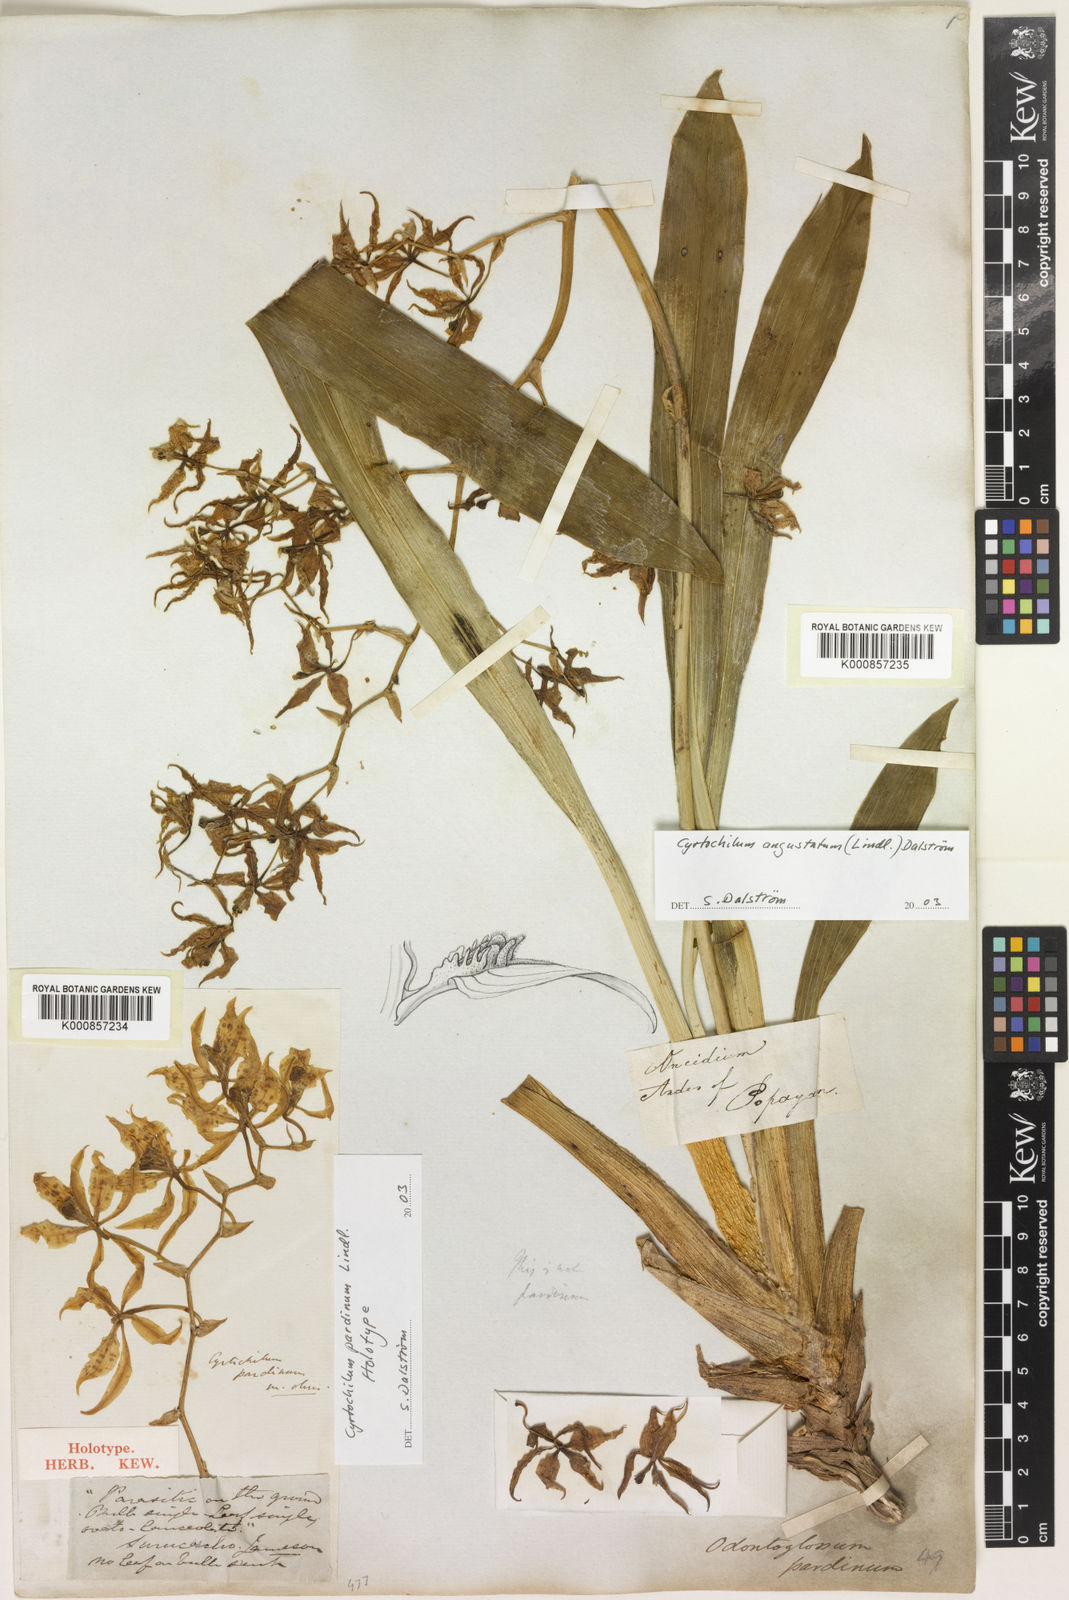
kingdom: Plantae
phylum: Tracheophyta
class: Liliopsida
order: Asparagales
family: Orchidaceae
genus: Cyrtochilum
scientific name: Cyrtochilum pardinum
